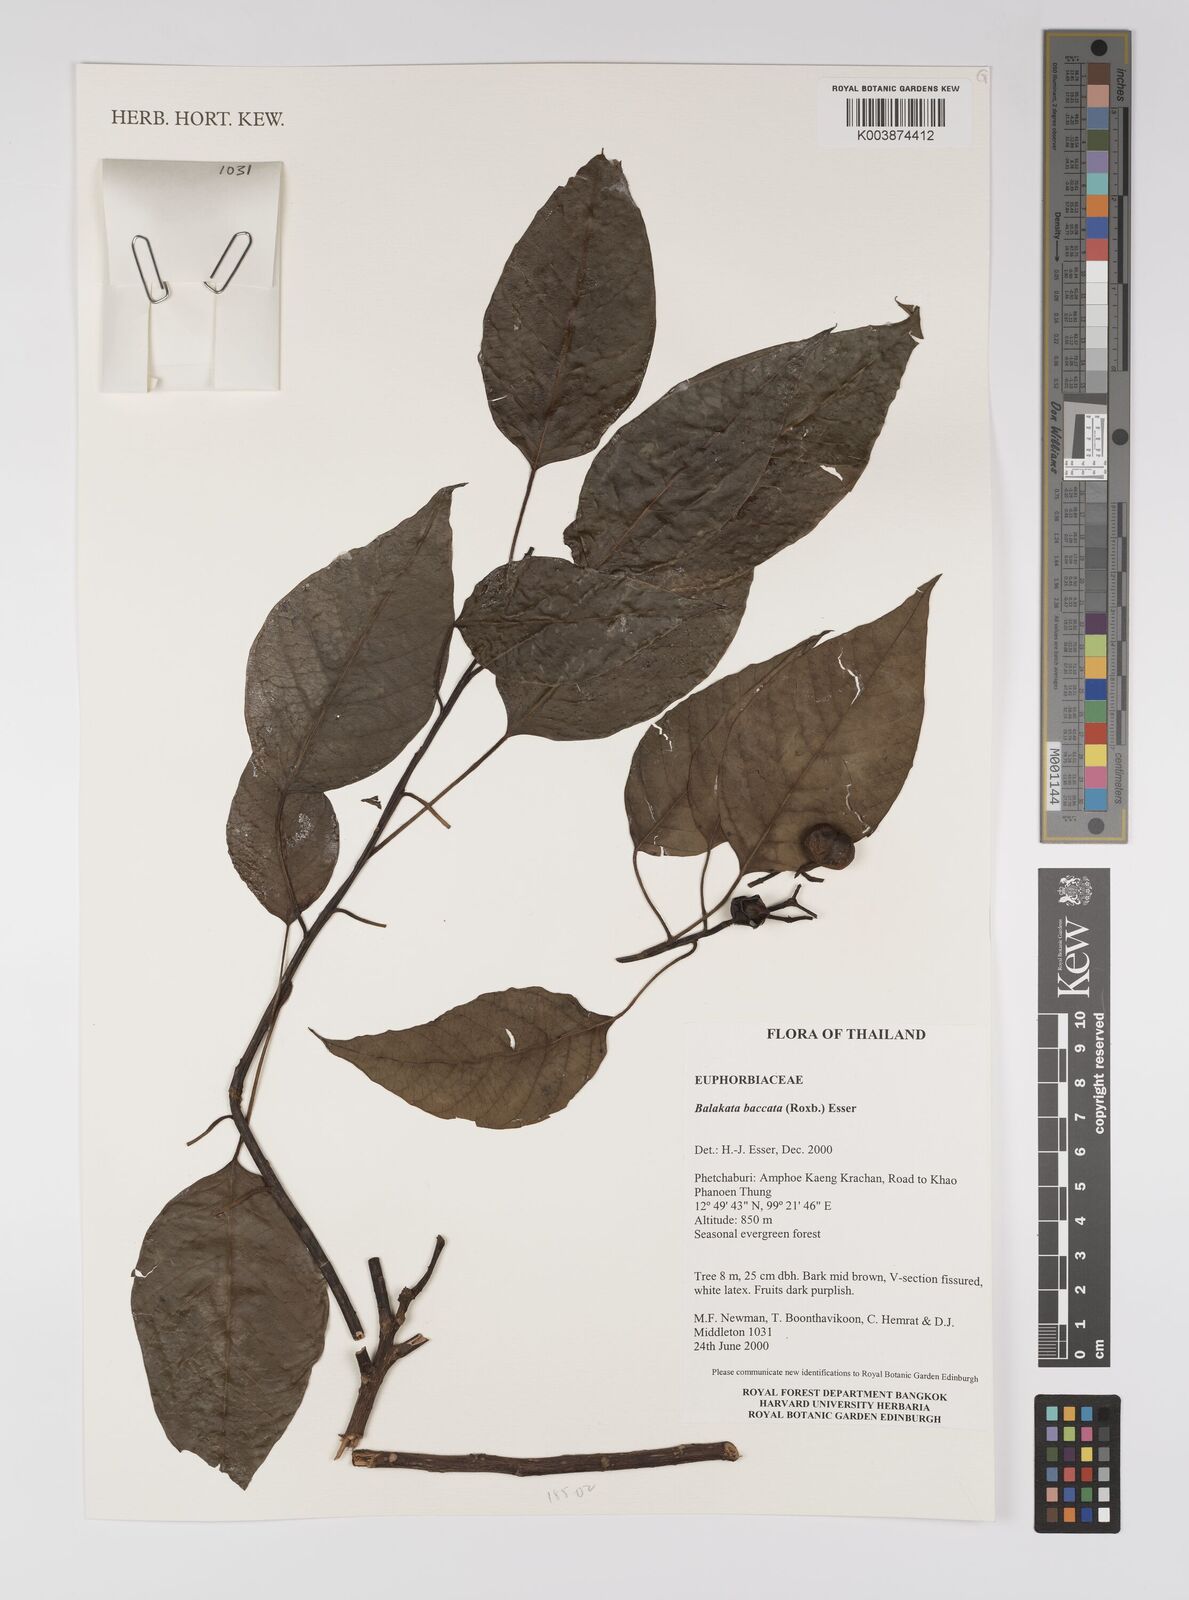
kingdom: Plantae
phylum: Tracheophyta
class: Magnoliopsida
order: Malpighiales
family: Euphorbiaceae
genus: Balakata
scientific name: Balakata baccata
